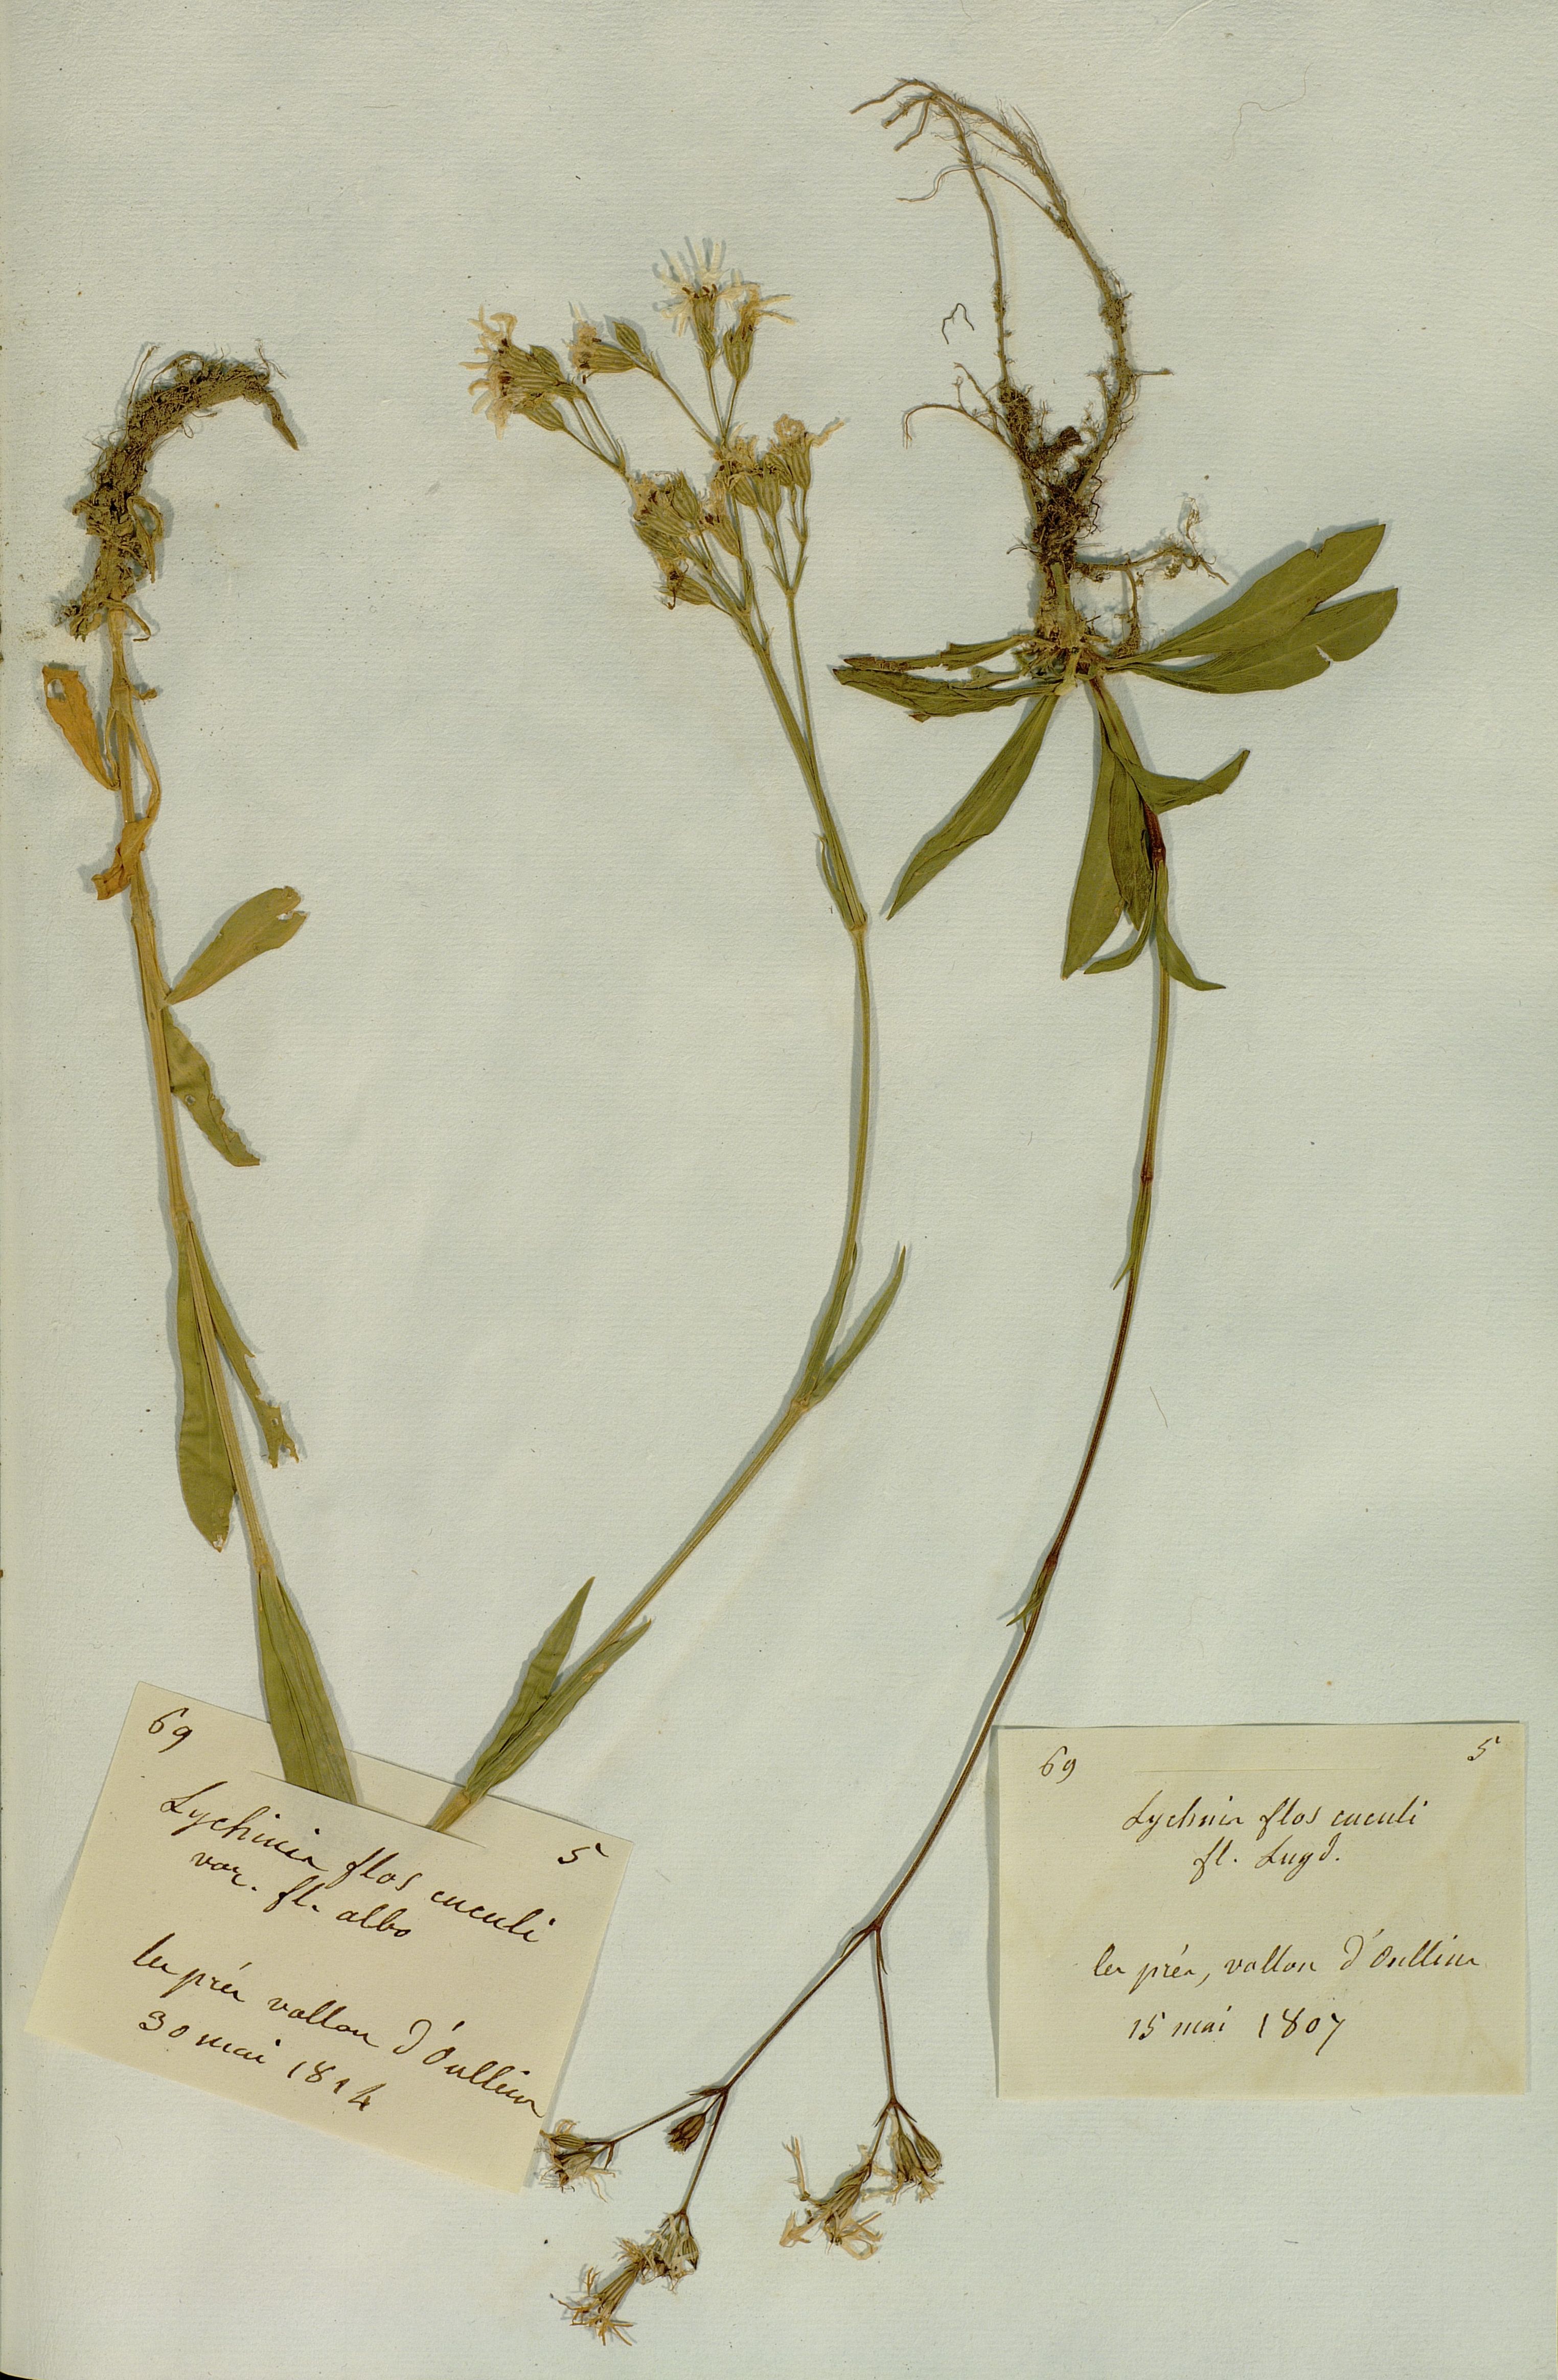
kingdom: Plantae
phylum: Tracheophyta
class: Magnoliopsida
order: Caryophyllales
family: Caryophyllaceae
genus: Silene
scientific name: Silene flos-cuculi
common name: Ragged-robin
